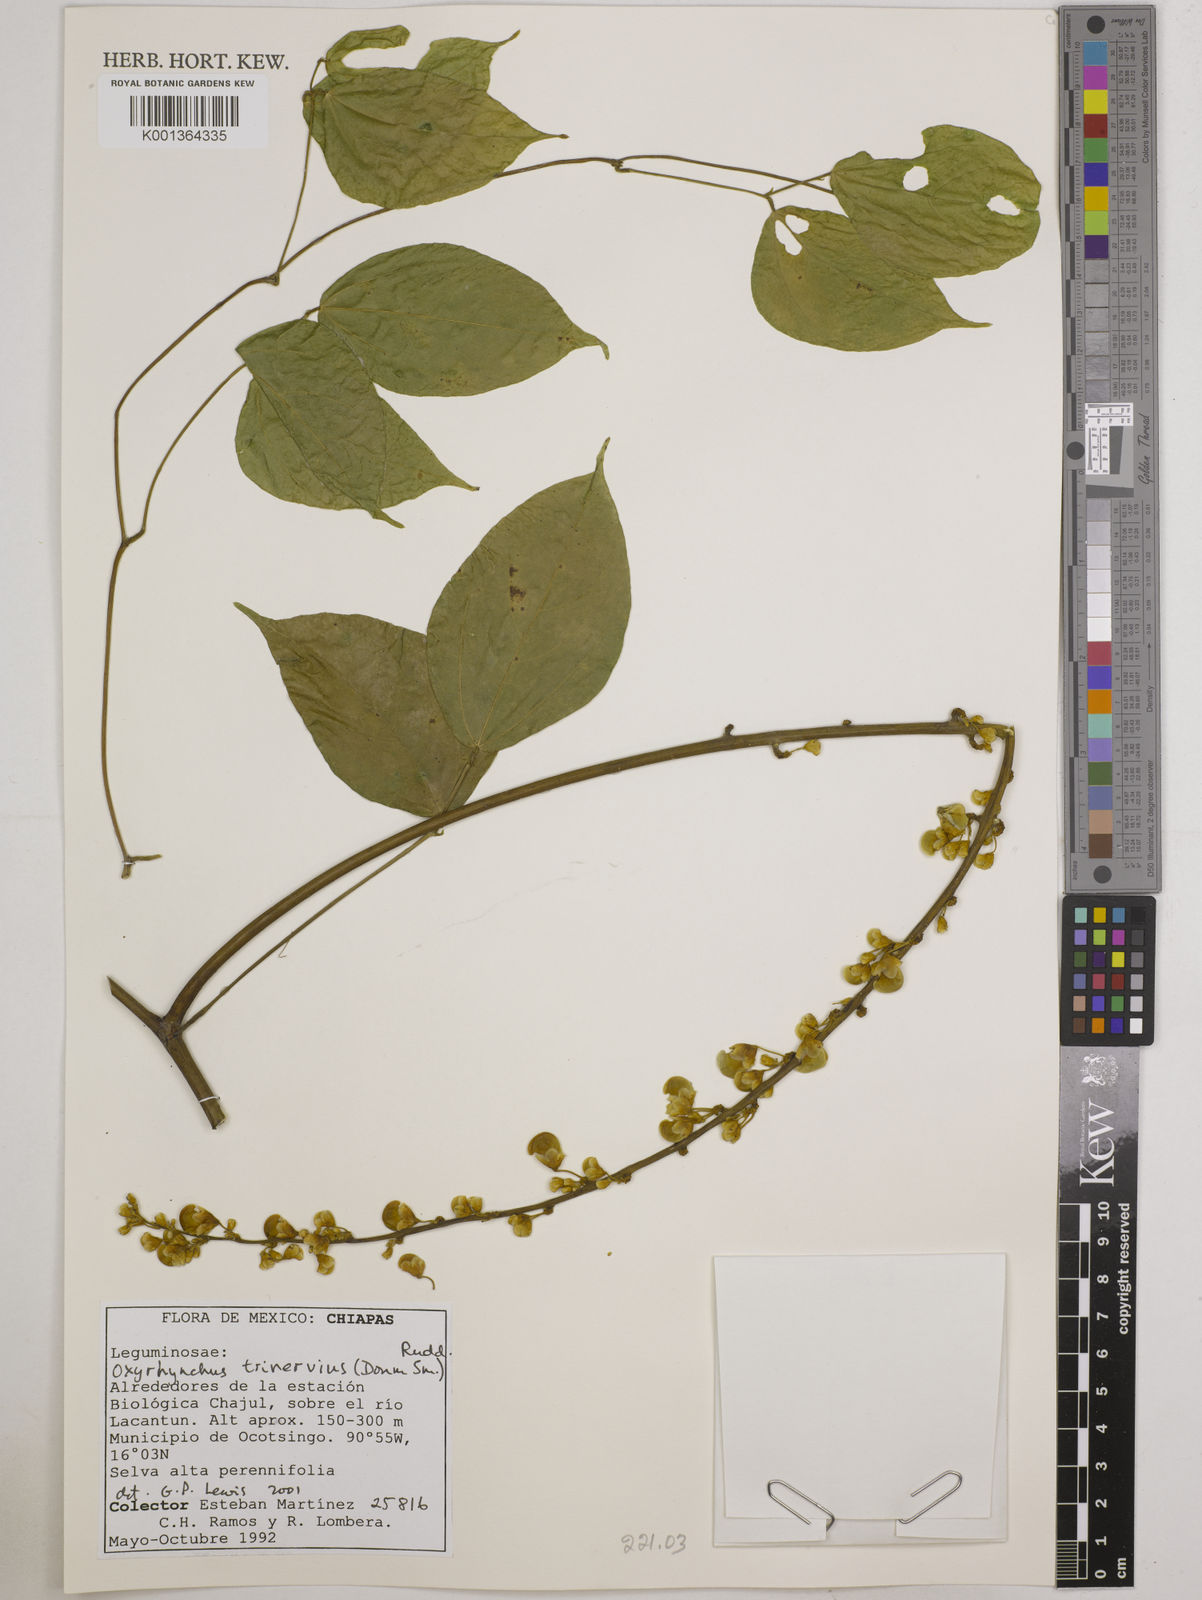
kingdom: Plantae
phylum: Tracheophyta
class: Magnoliopsida
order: Fabales
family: Fabaceae
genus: Oxyrhynchus
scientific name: Oxyrhynchus trinervius
